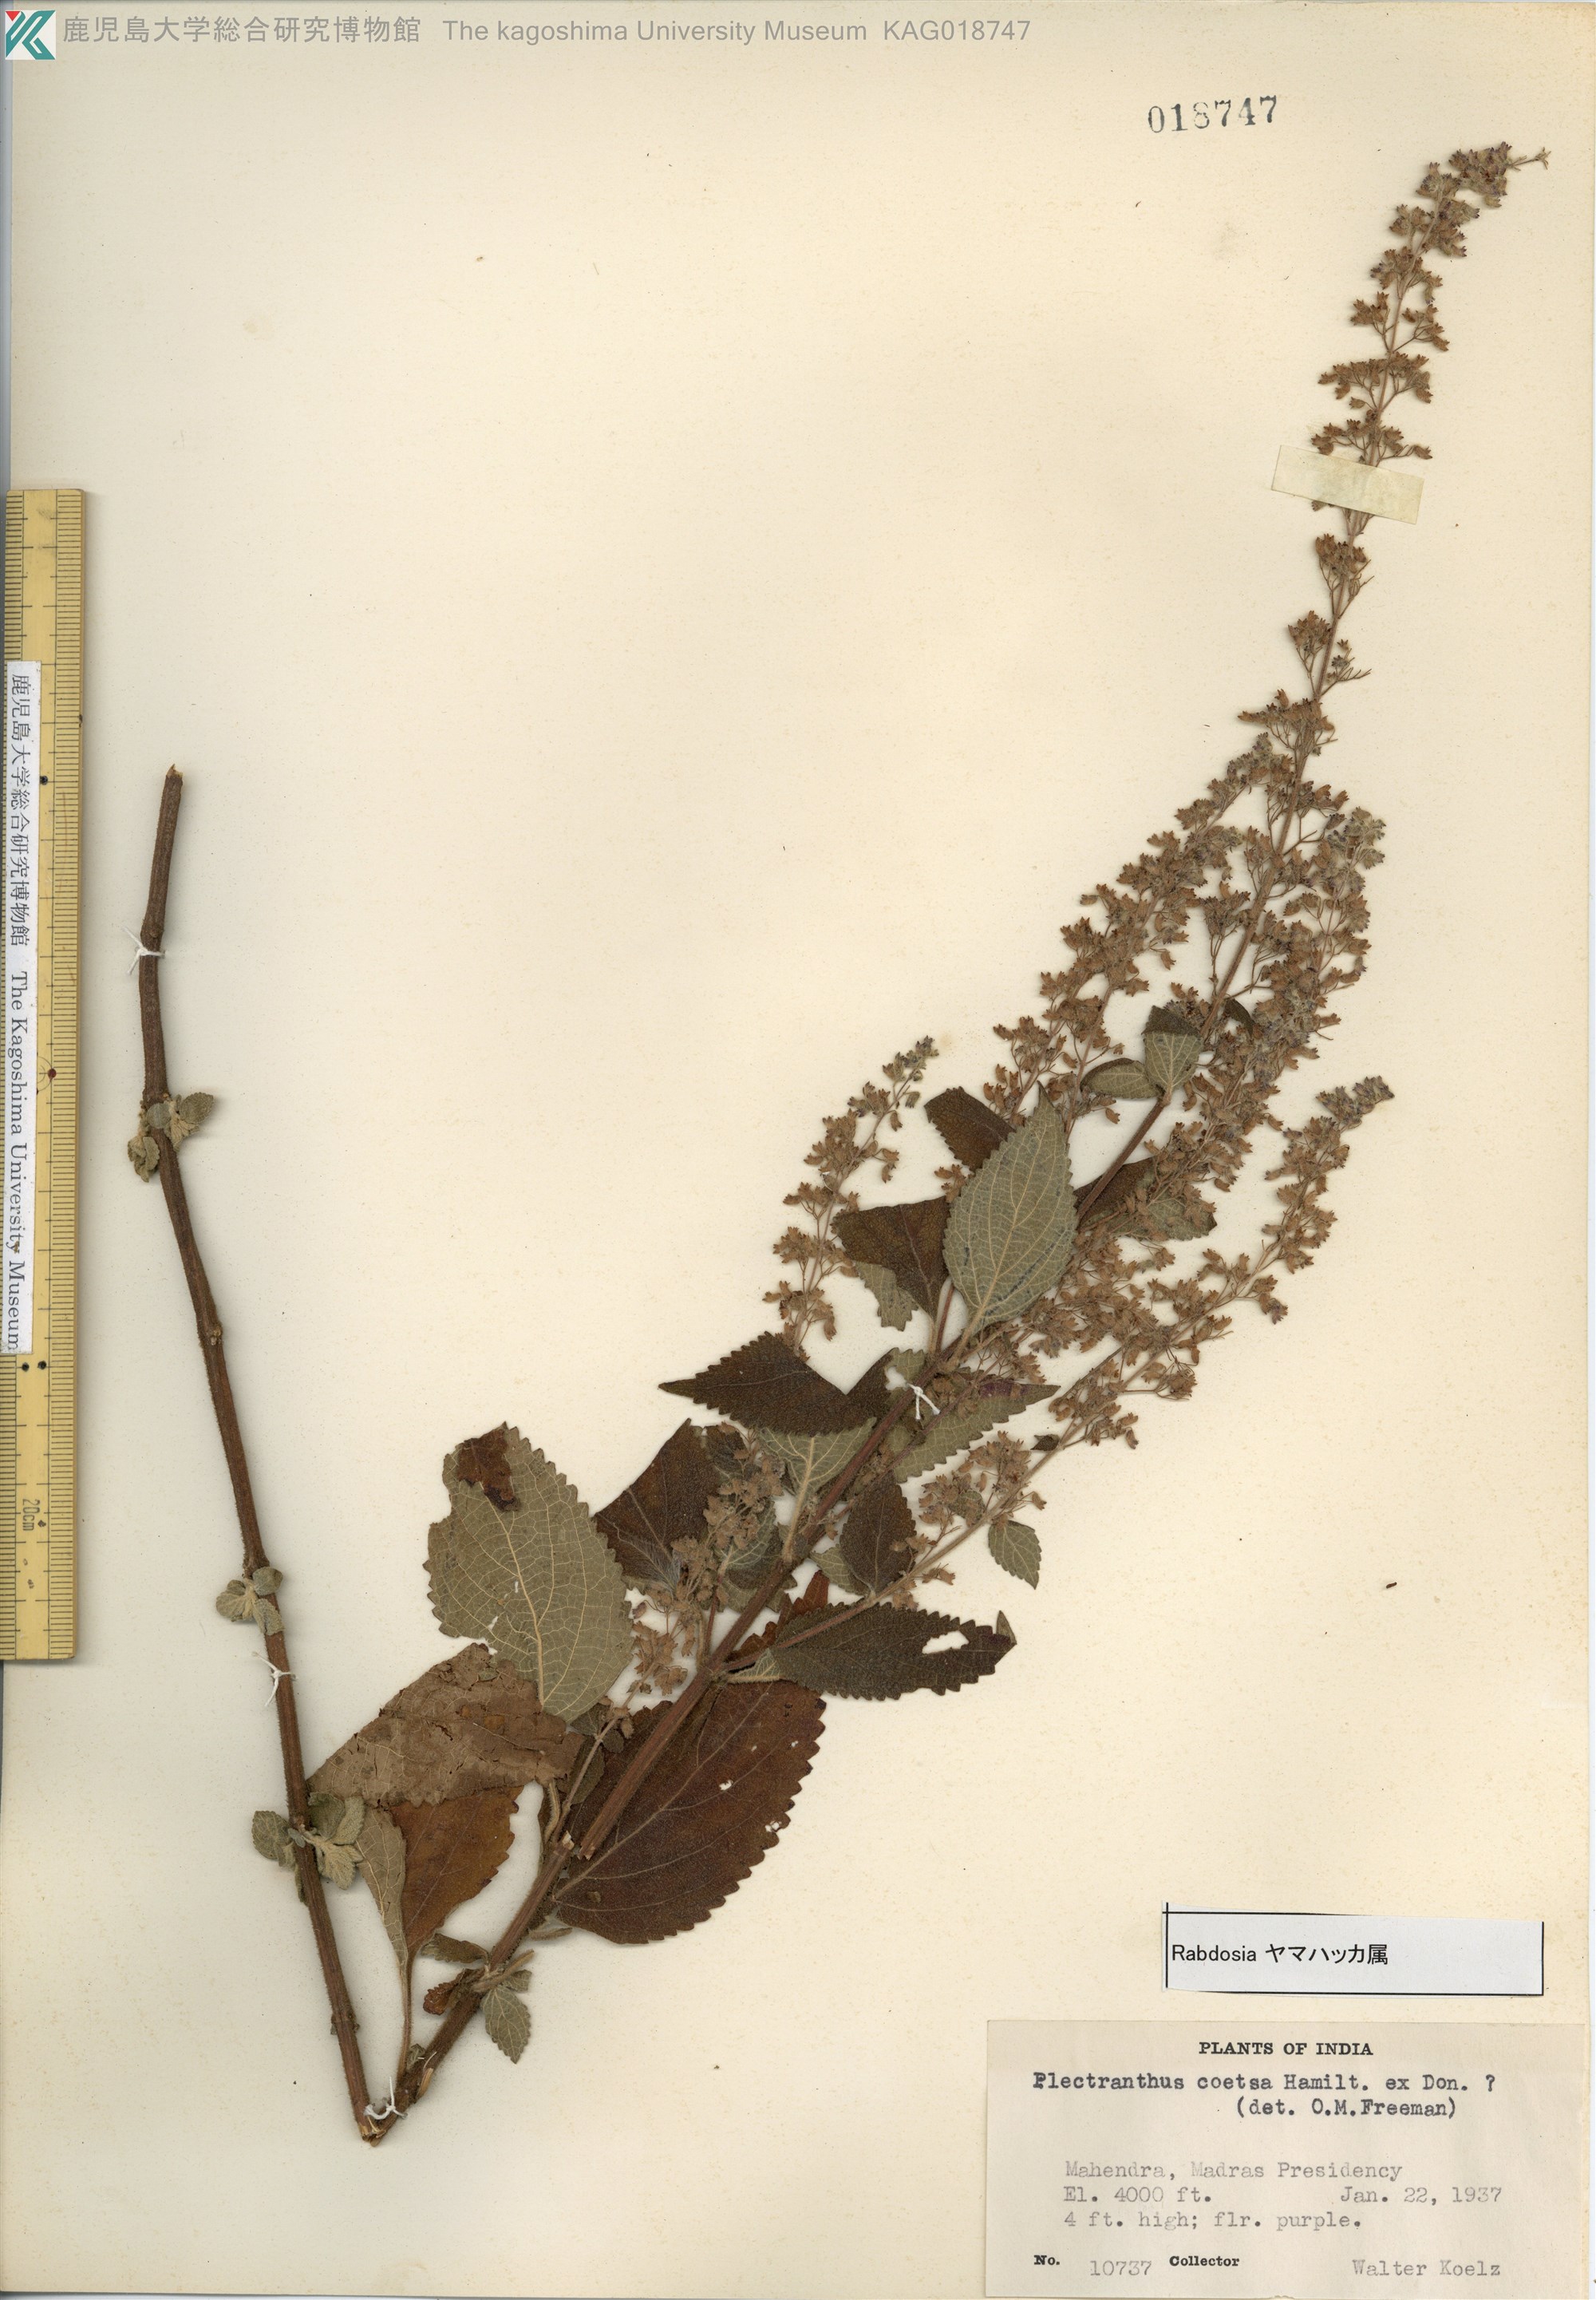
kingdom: Plantae
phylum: Tracheophyta
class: Magnoliopsida
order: Lamiales
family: Lamiaceae
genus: Isodon
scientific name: Isodon coetsa
